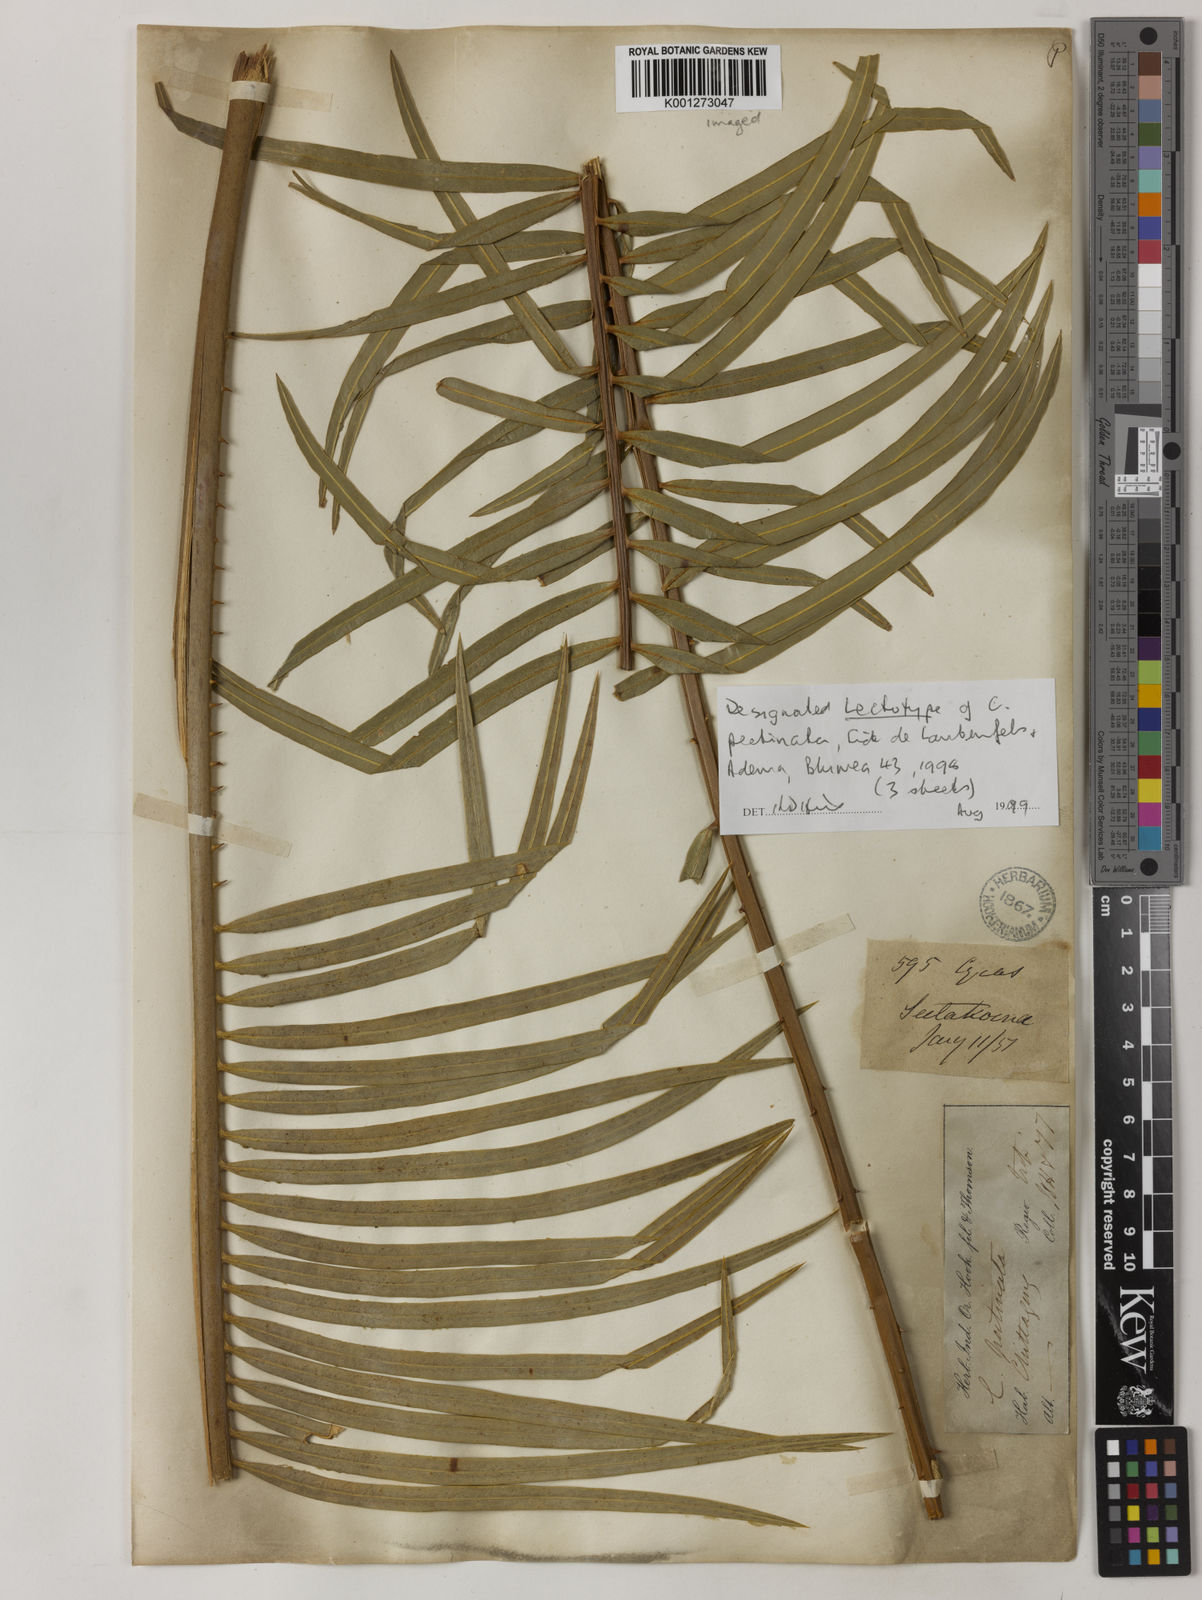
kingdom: Plantae
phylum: Tracheophyta
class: Cycadopsida
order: Cycadales
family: Cycadaceae
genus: Cycas
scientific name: Cycas pectinata
